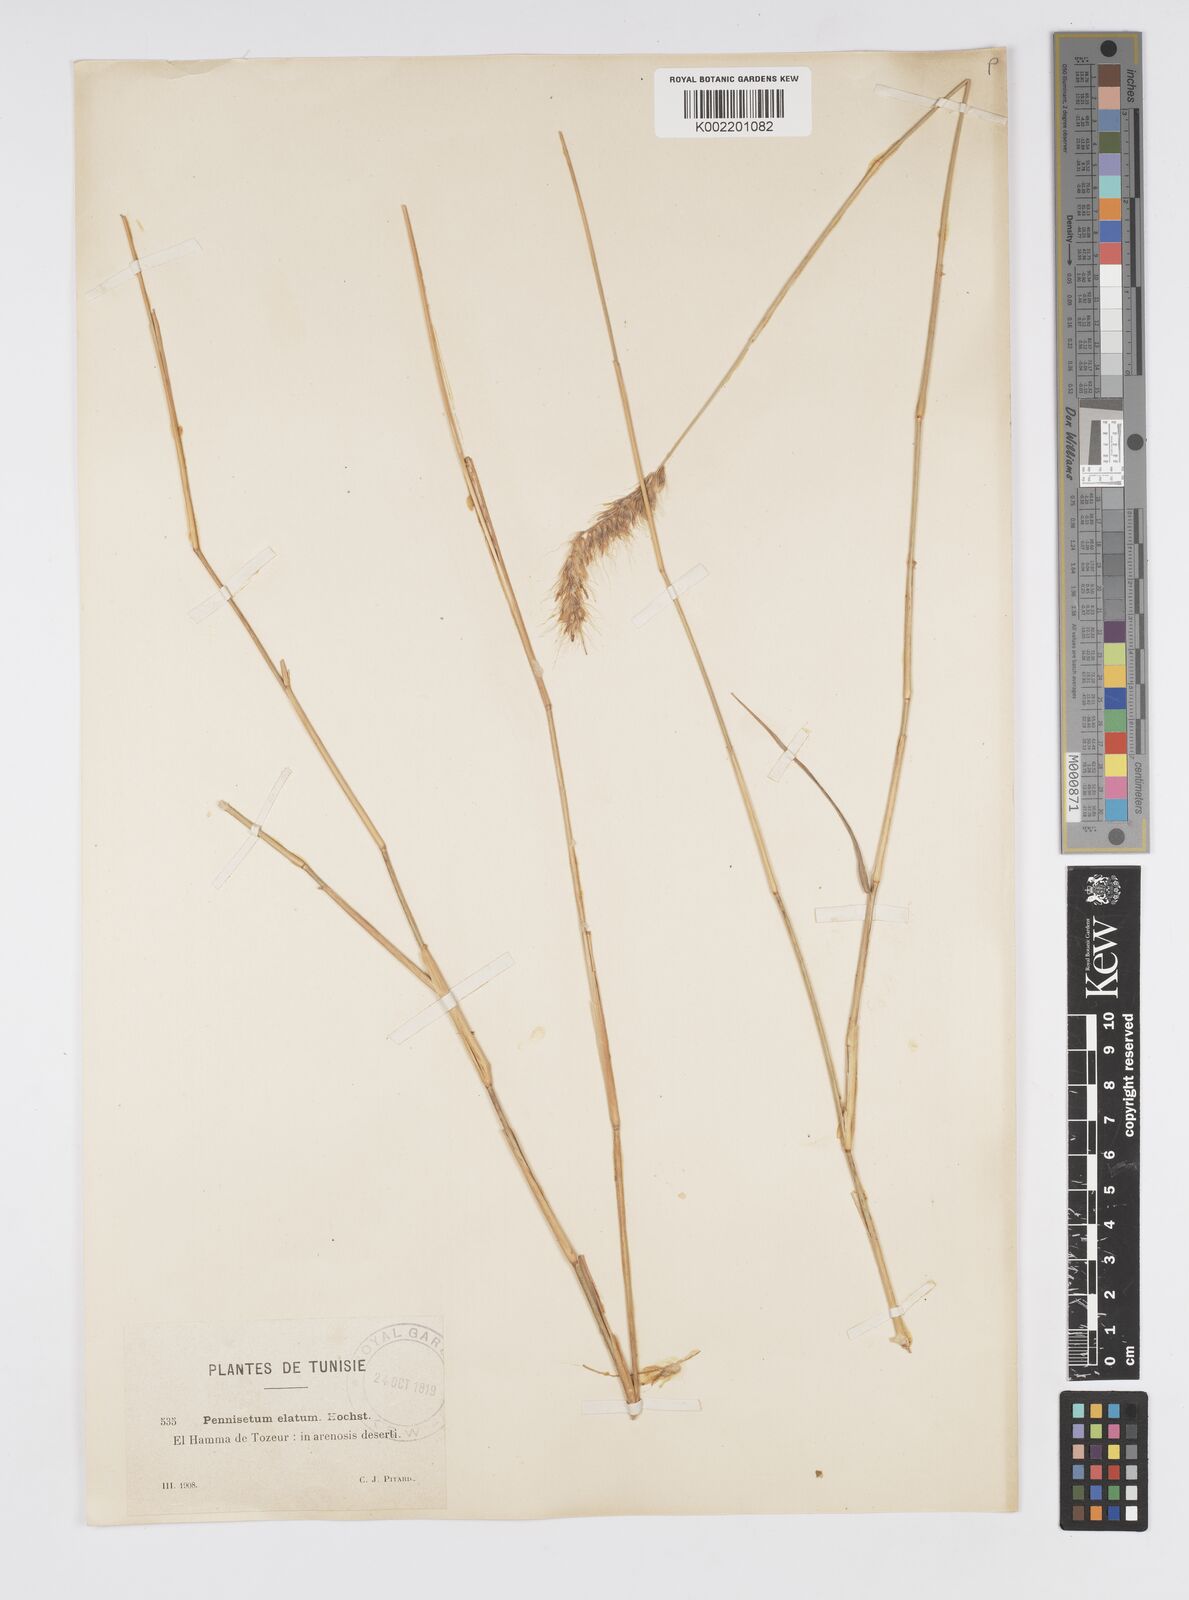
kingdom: Plantae
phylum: Tracheophyta
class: Liliopsida
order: Poales
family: Poaceae
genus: Cenchrus
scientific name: Cenchrus orientalis
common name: Oriental fountain grass
